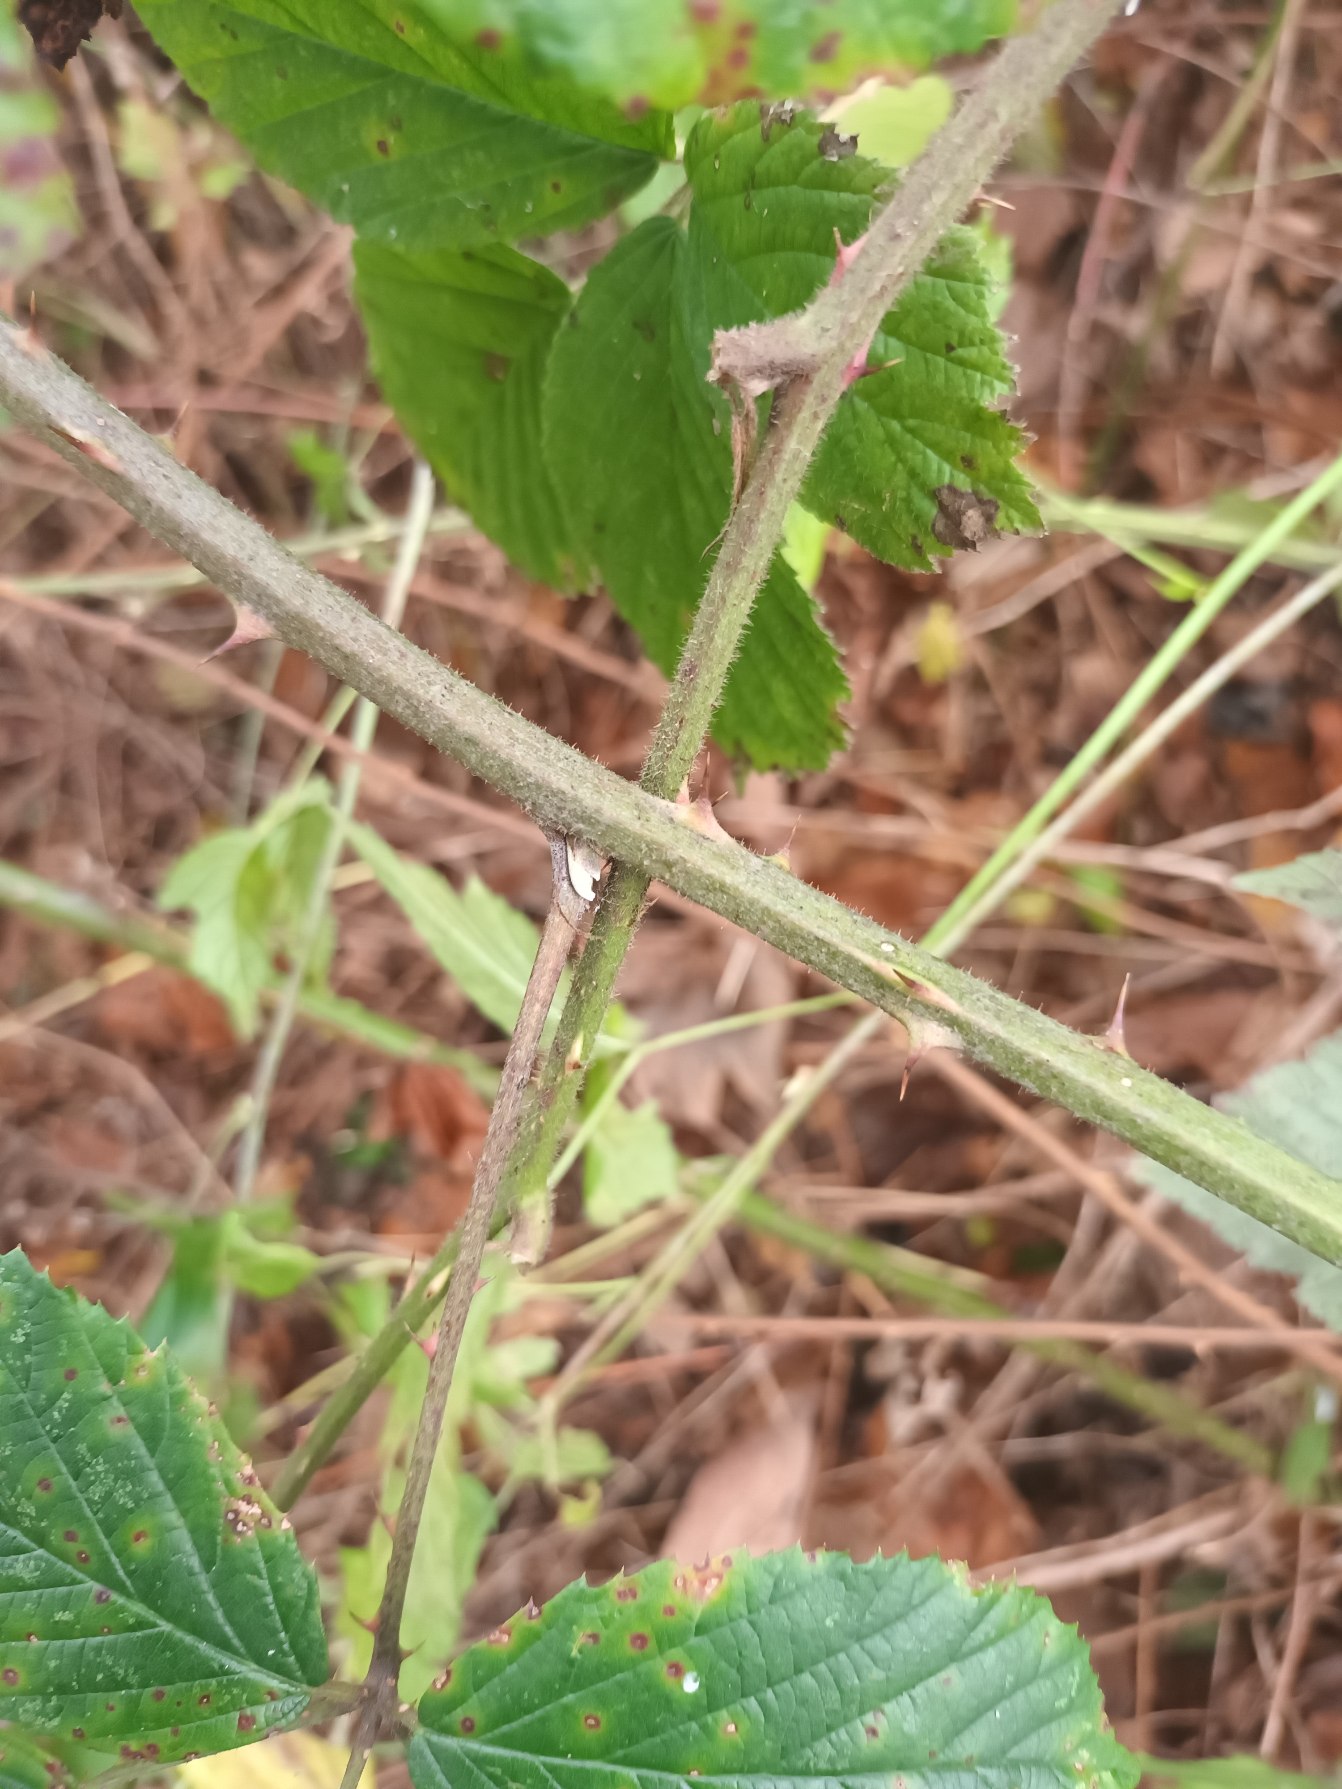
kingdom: Plantae
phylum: Tracheophyta
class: Magnoliopsida
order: Rosales
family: Rosaceae
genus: Rubus
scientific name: Rubus radula
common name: Rasperu brombær
